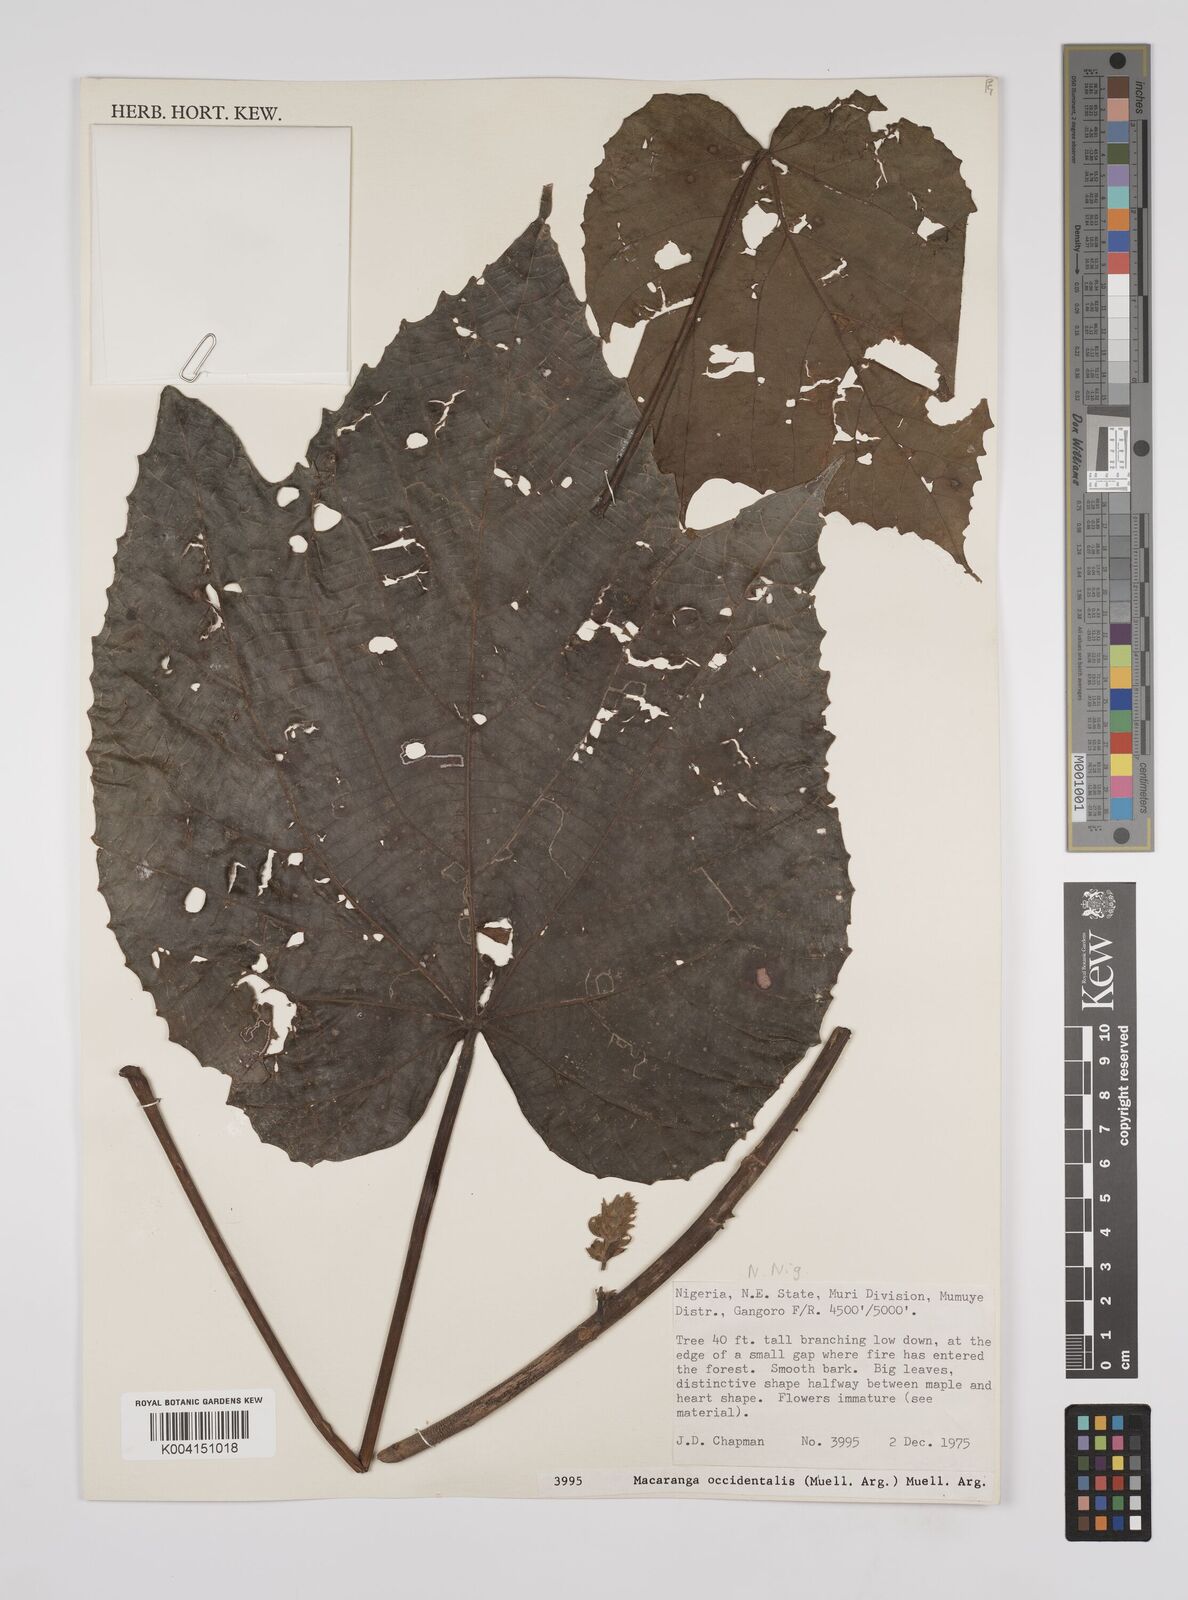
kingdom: Plantae
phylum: Tracheophyta
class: Magnoliopsida
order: Malpighiales
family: Euphorbiaceae
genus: Macaranga
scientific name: Macaranga occidentalis
